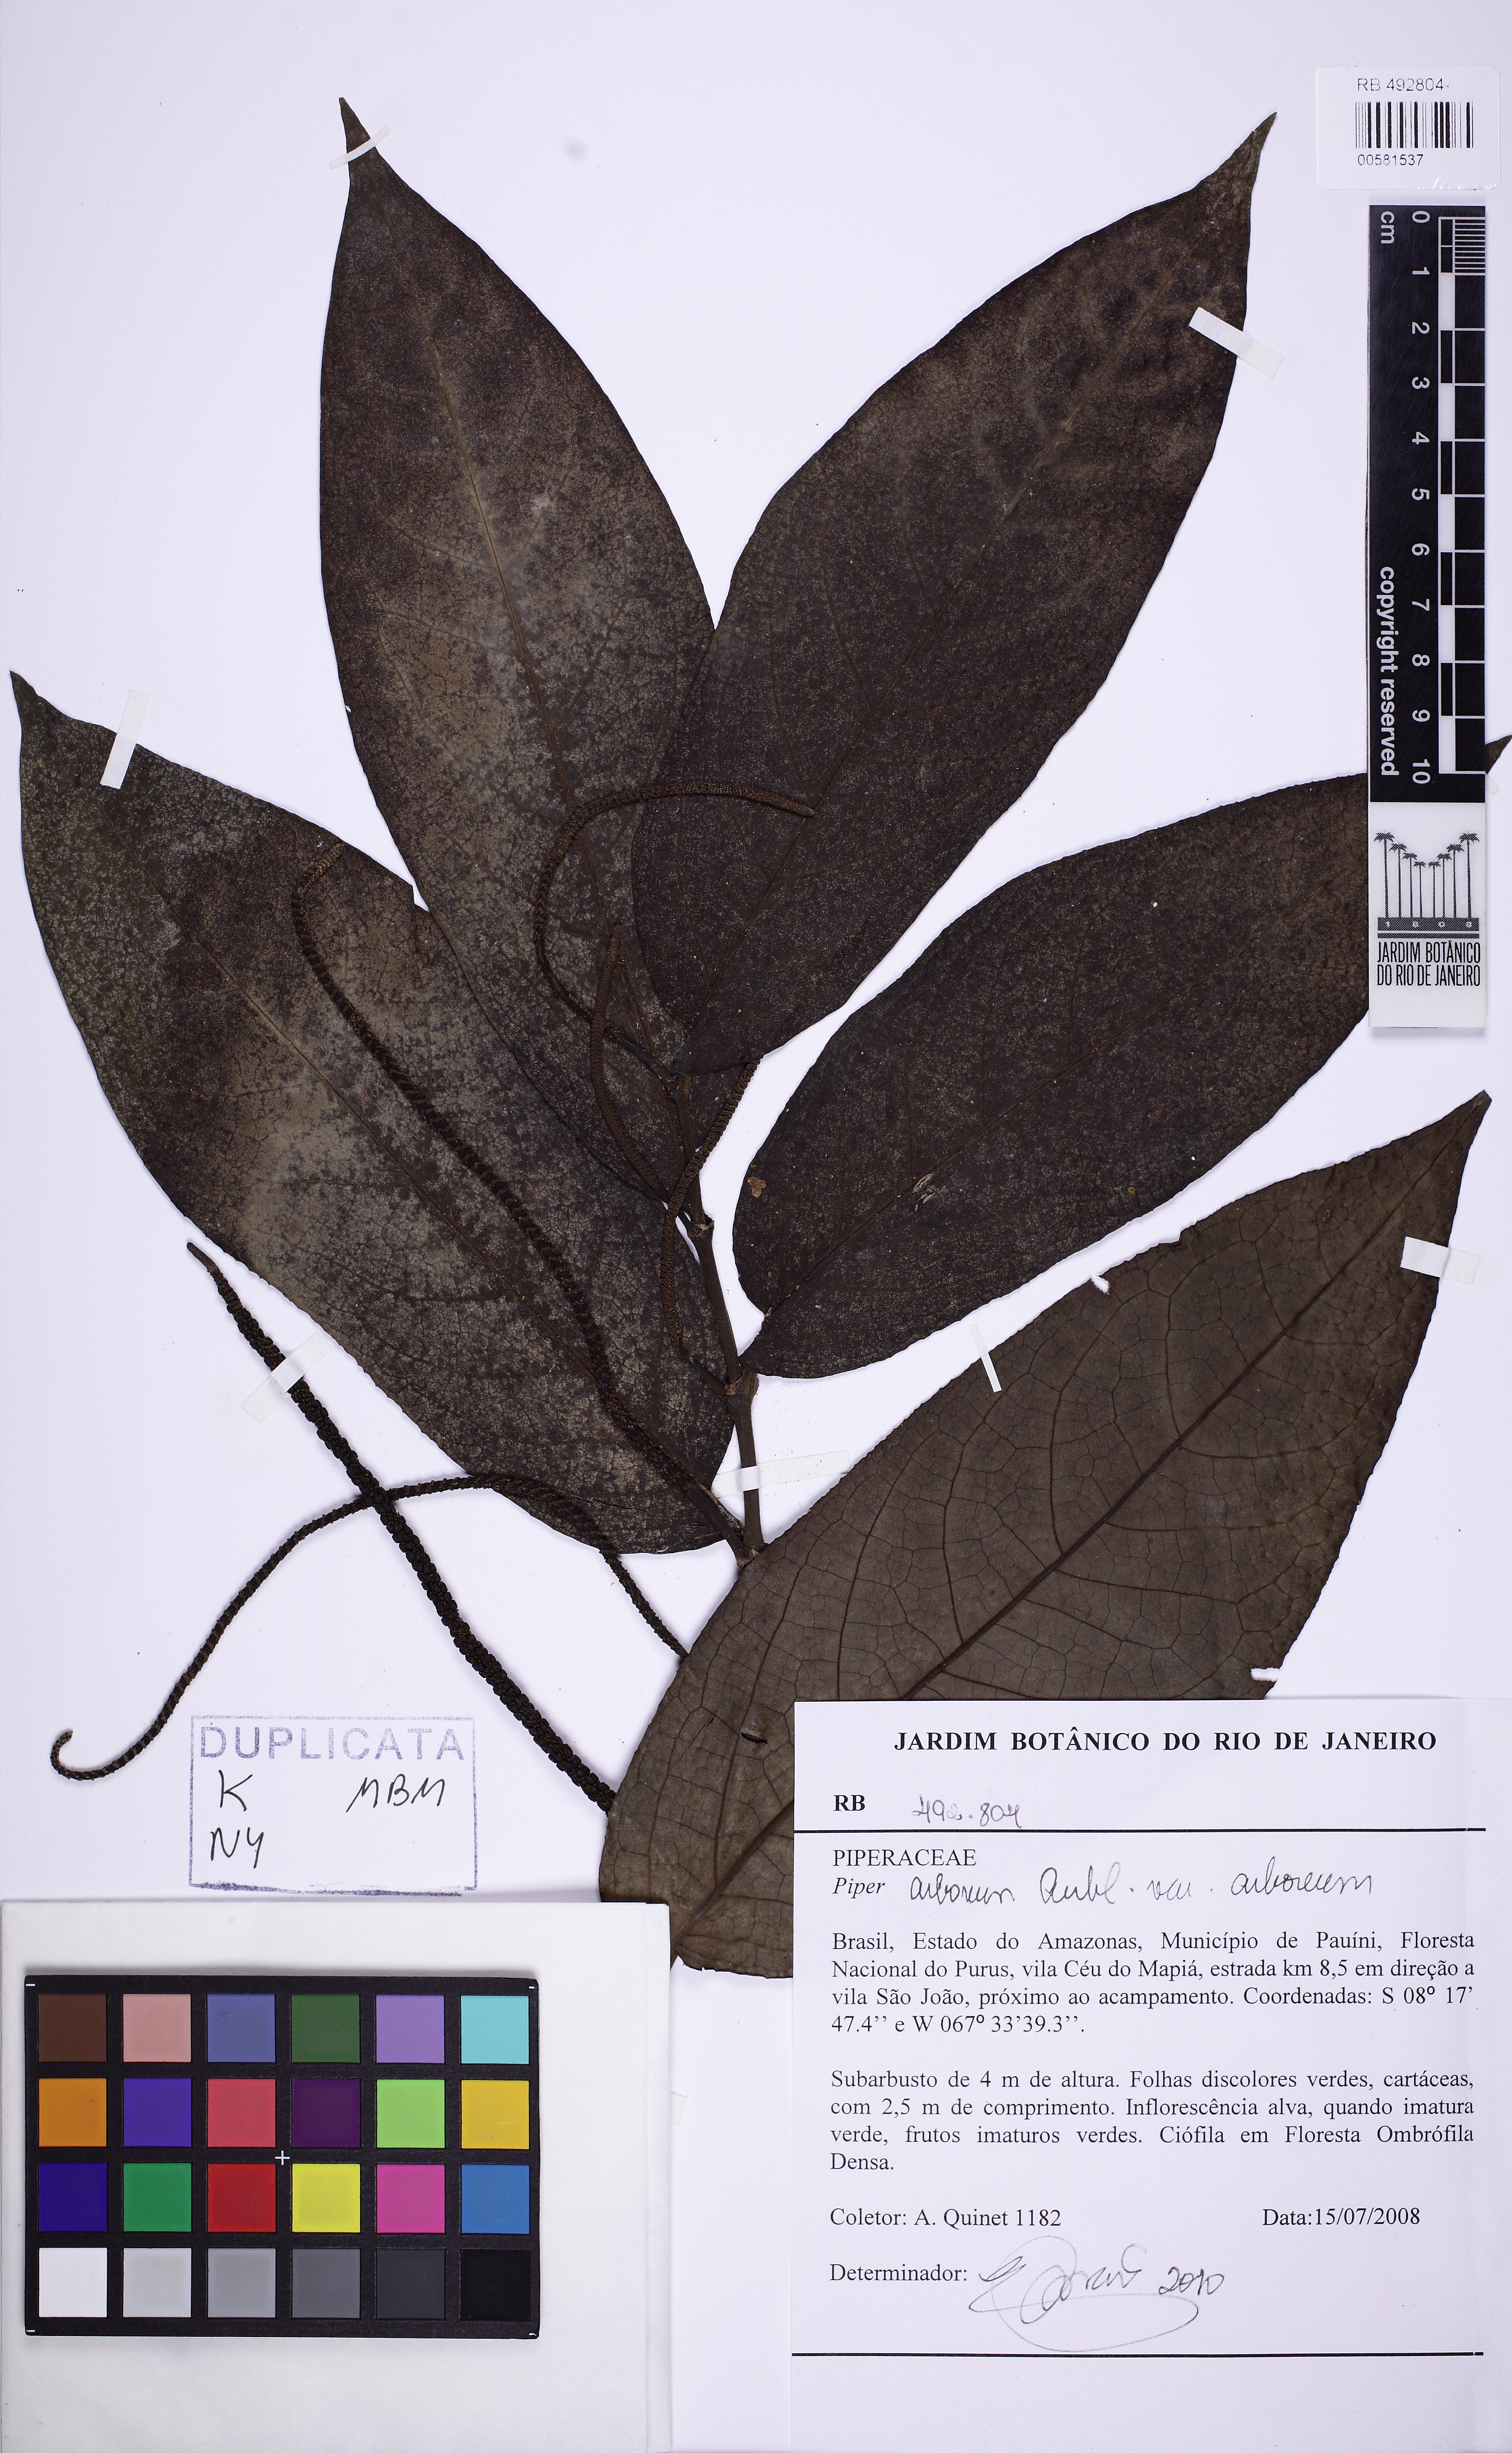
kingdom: Plantae
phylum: Tracheophyta
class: Magnoliopsida
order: Piperales
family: Piperaceae
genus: Piper
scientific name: Piper arboreum
